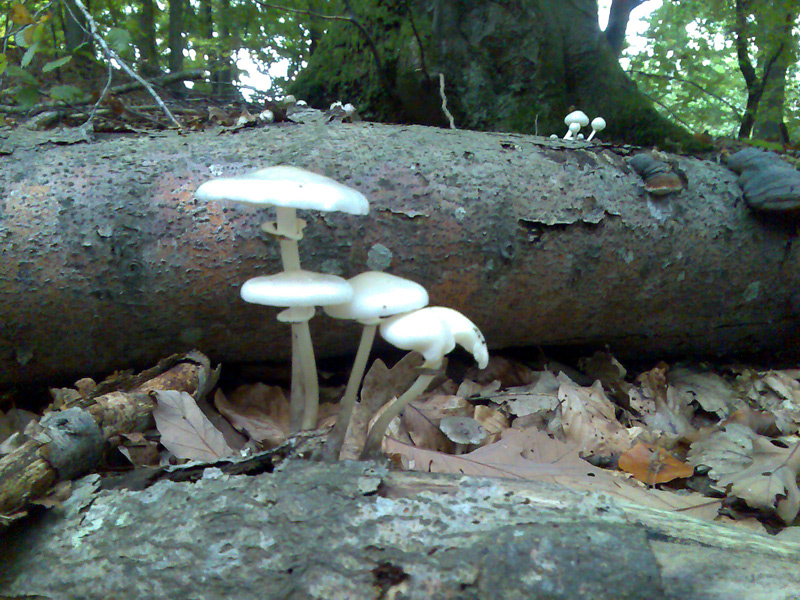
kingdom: Fungi
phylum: Basidiomycota
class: Agaricomycetes
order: Agaricales
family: Physalacriaceae
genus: Mucidula
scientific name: Mucidula mucida
